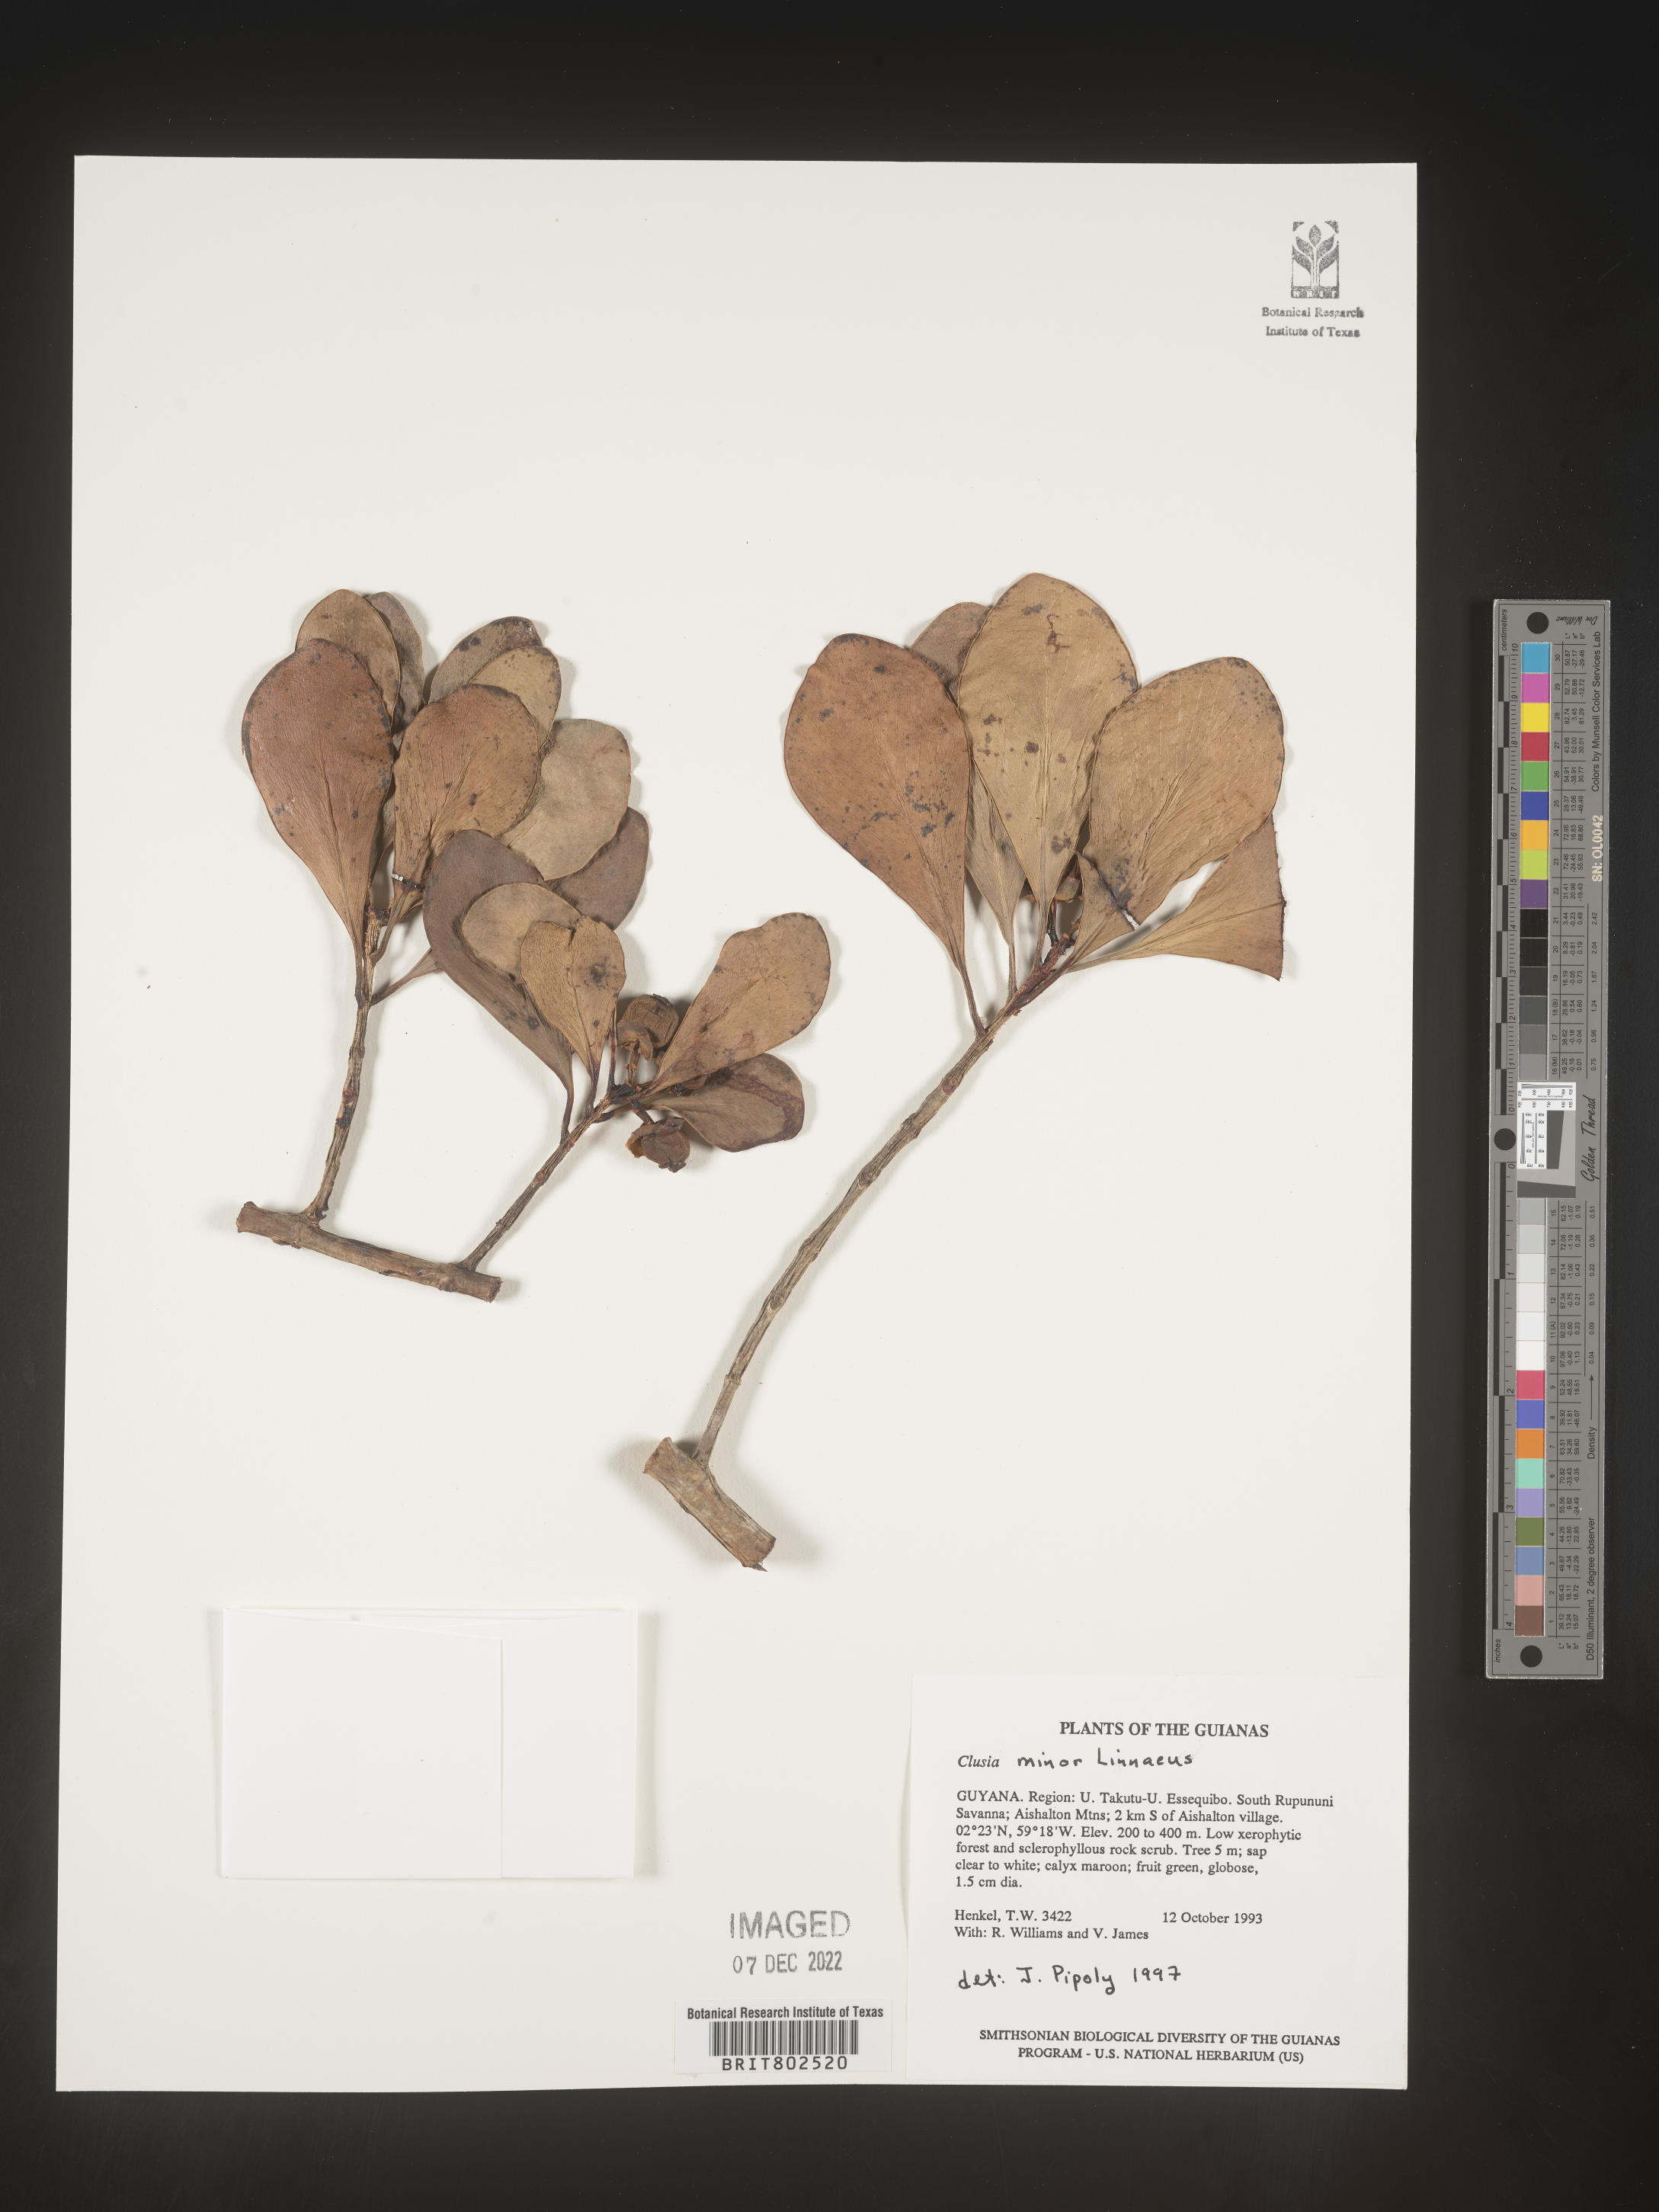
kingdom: Plantae
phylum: Tracheophyta
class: Magnoliopsida
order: Malpighiales
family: Clusiaceae
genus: Clusia
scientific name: Clusia minor
